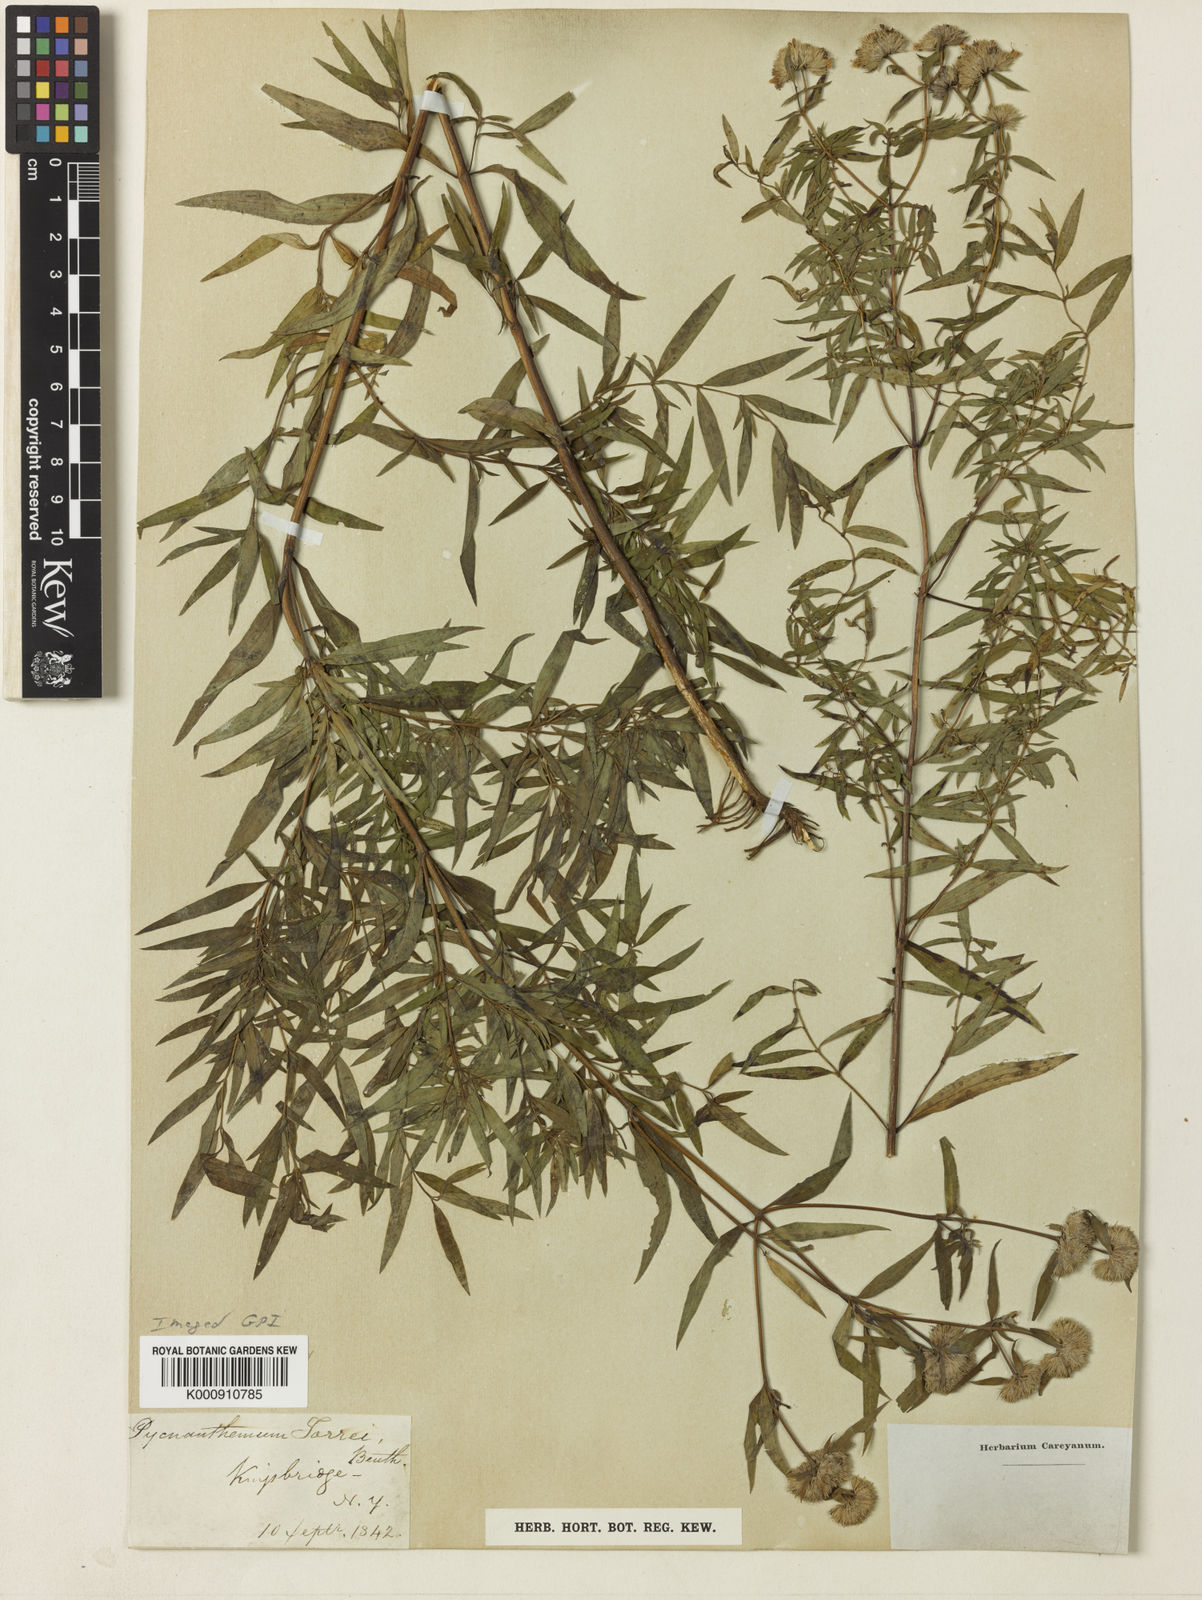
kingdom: Plantae
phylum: Tracheophyta
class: Magnoliopsida
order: Lamiales
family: Lamiaceae
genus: Pycnanthemum
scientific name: Pycnanthemum torreyi
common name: Torrey's mountain-mint
